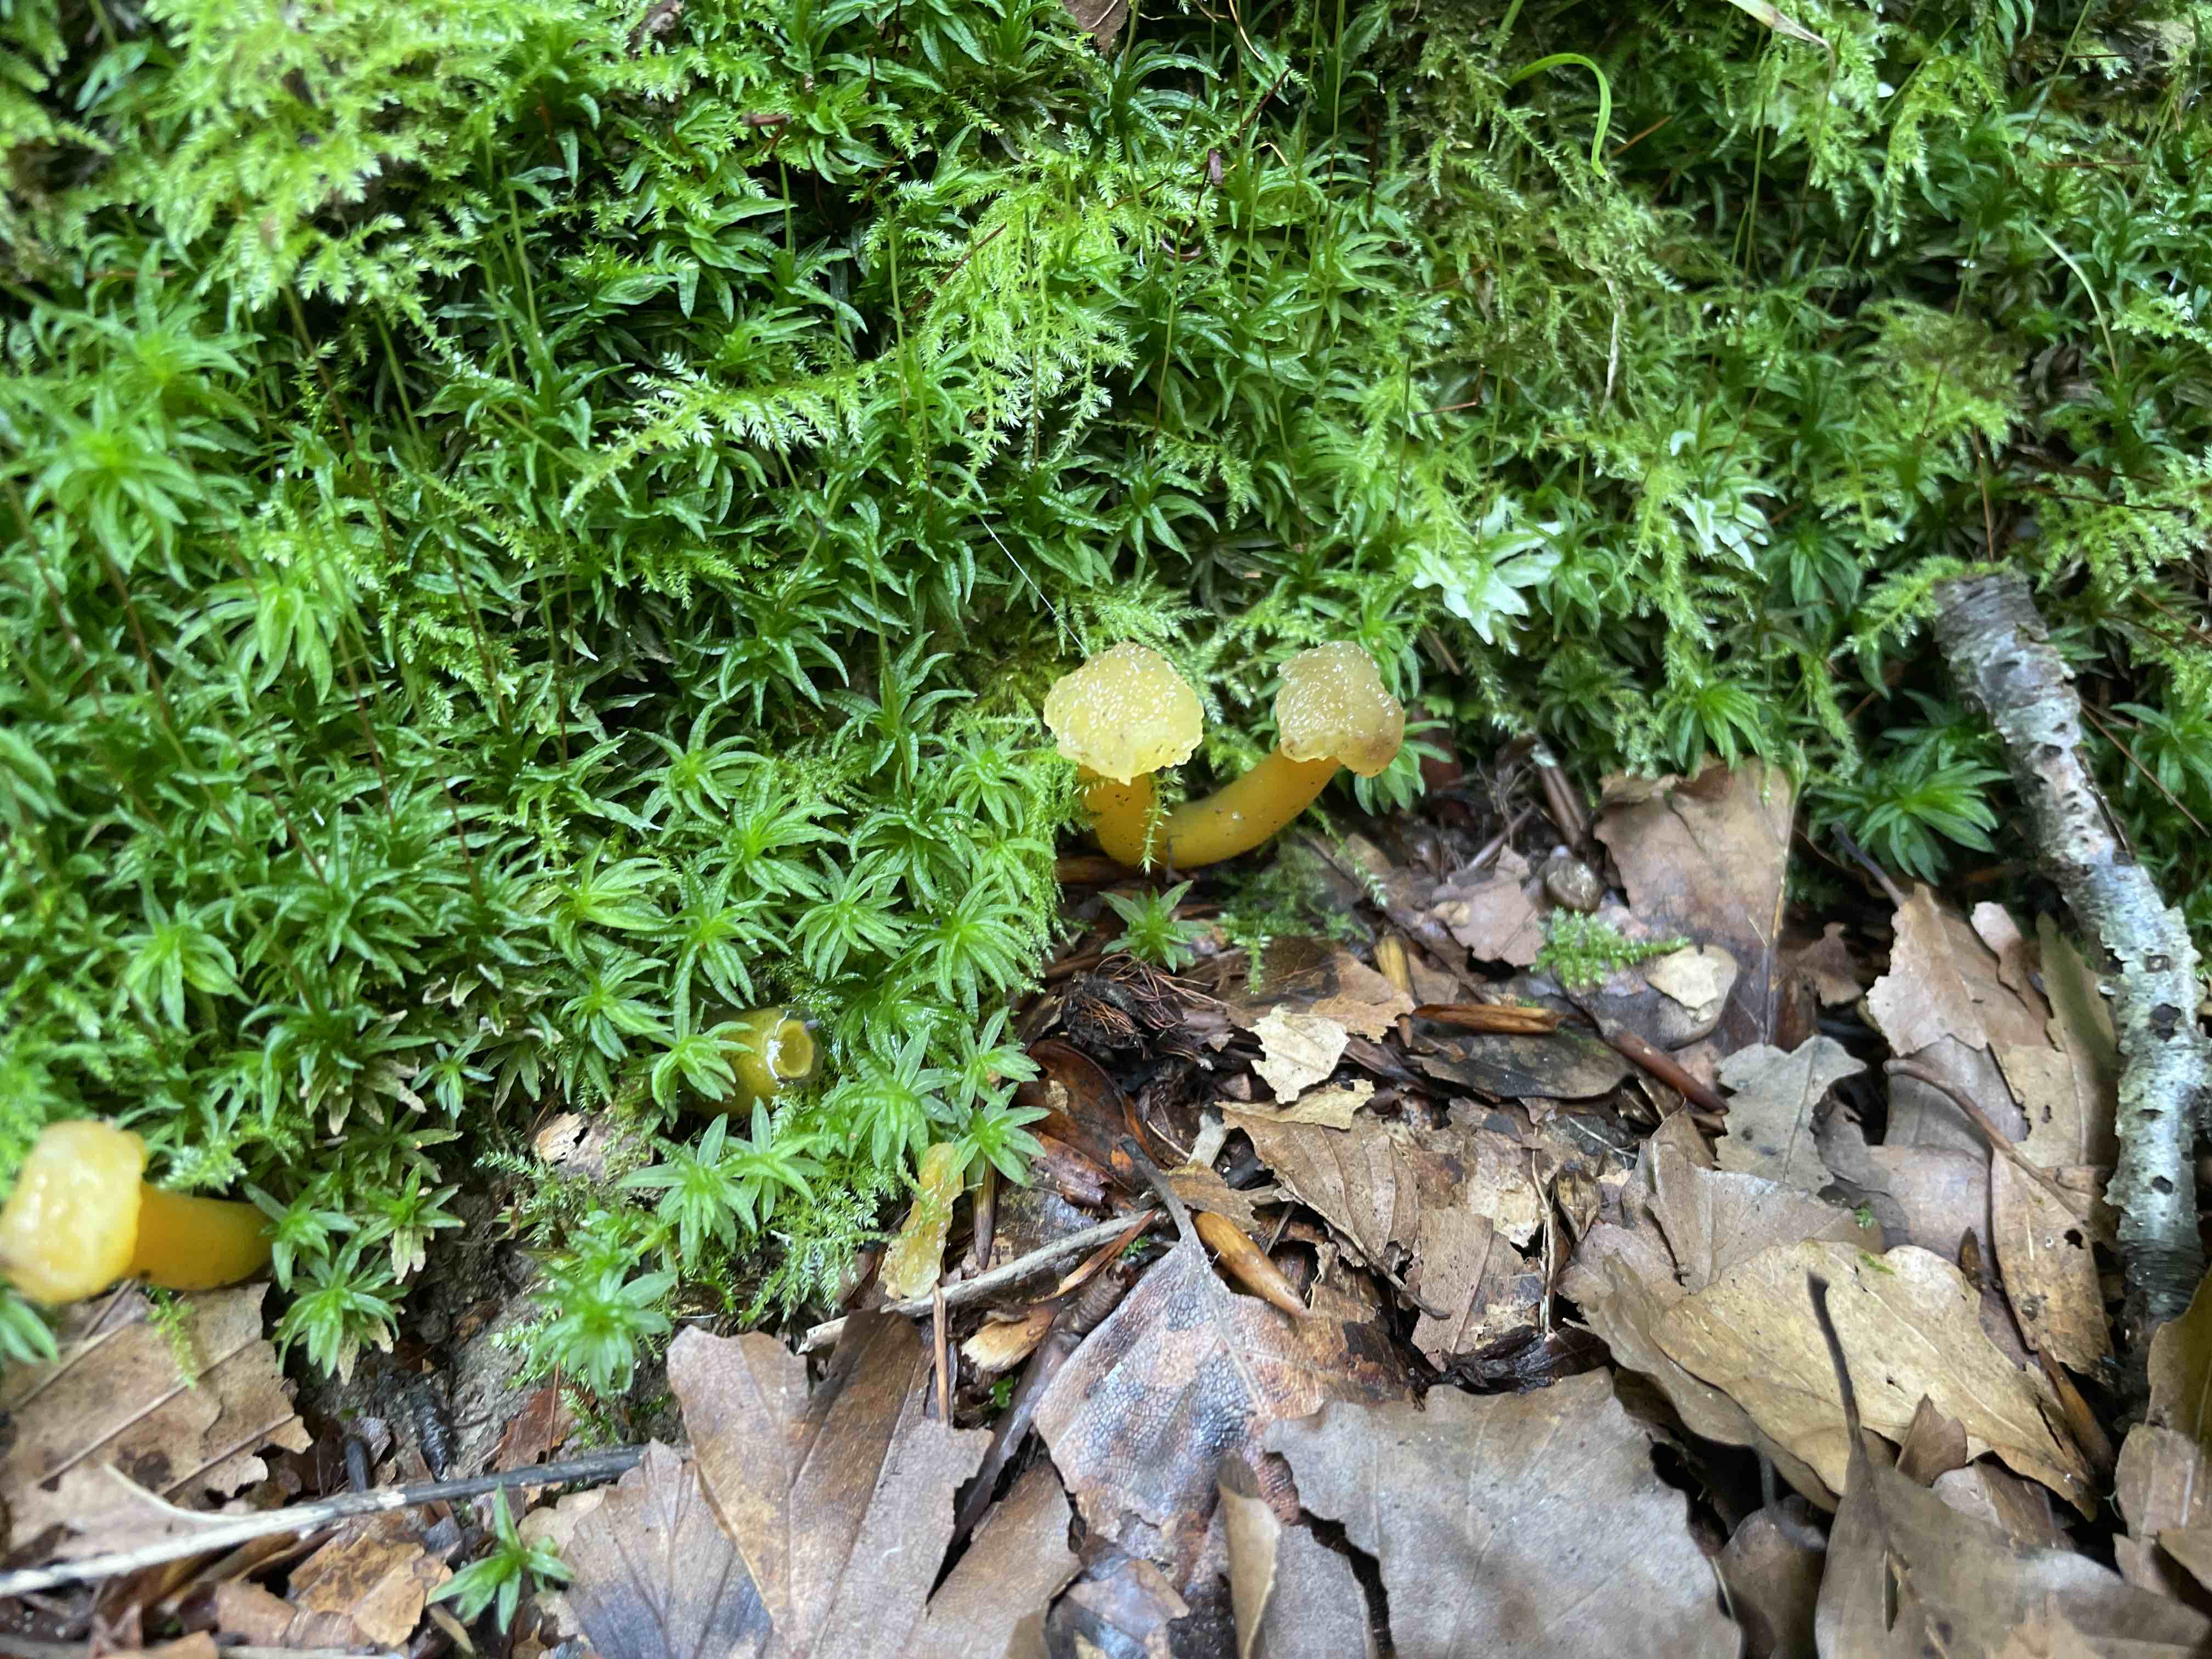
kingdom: Fungi
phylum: Ascomycota
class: Leotiomycetes
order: Leotiales
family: Leotiaceae
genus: Leotia
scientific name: Leotia lubrica
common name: ravsvamp
